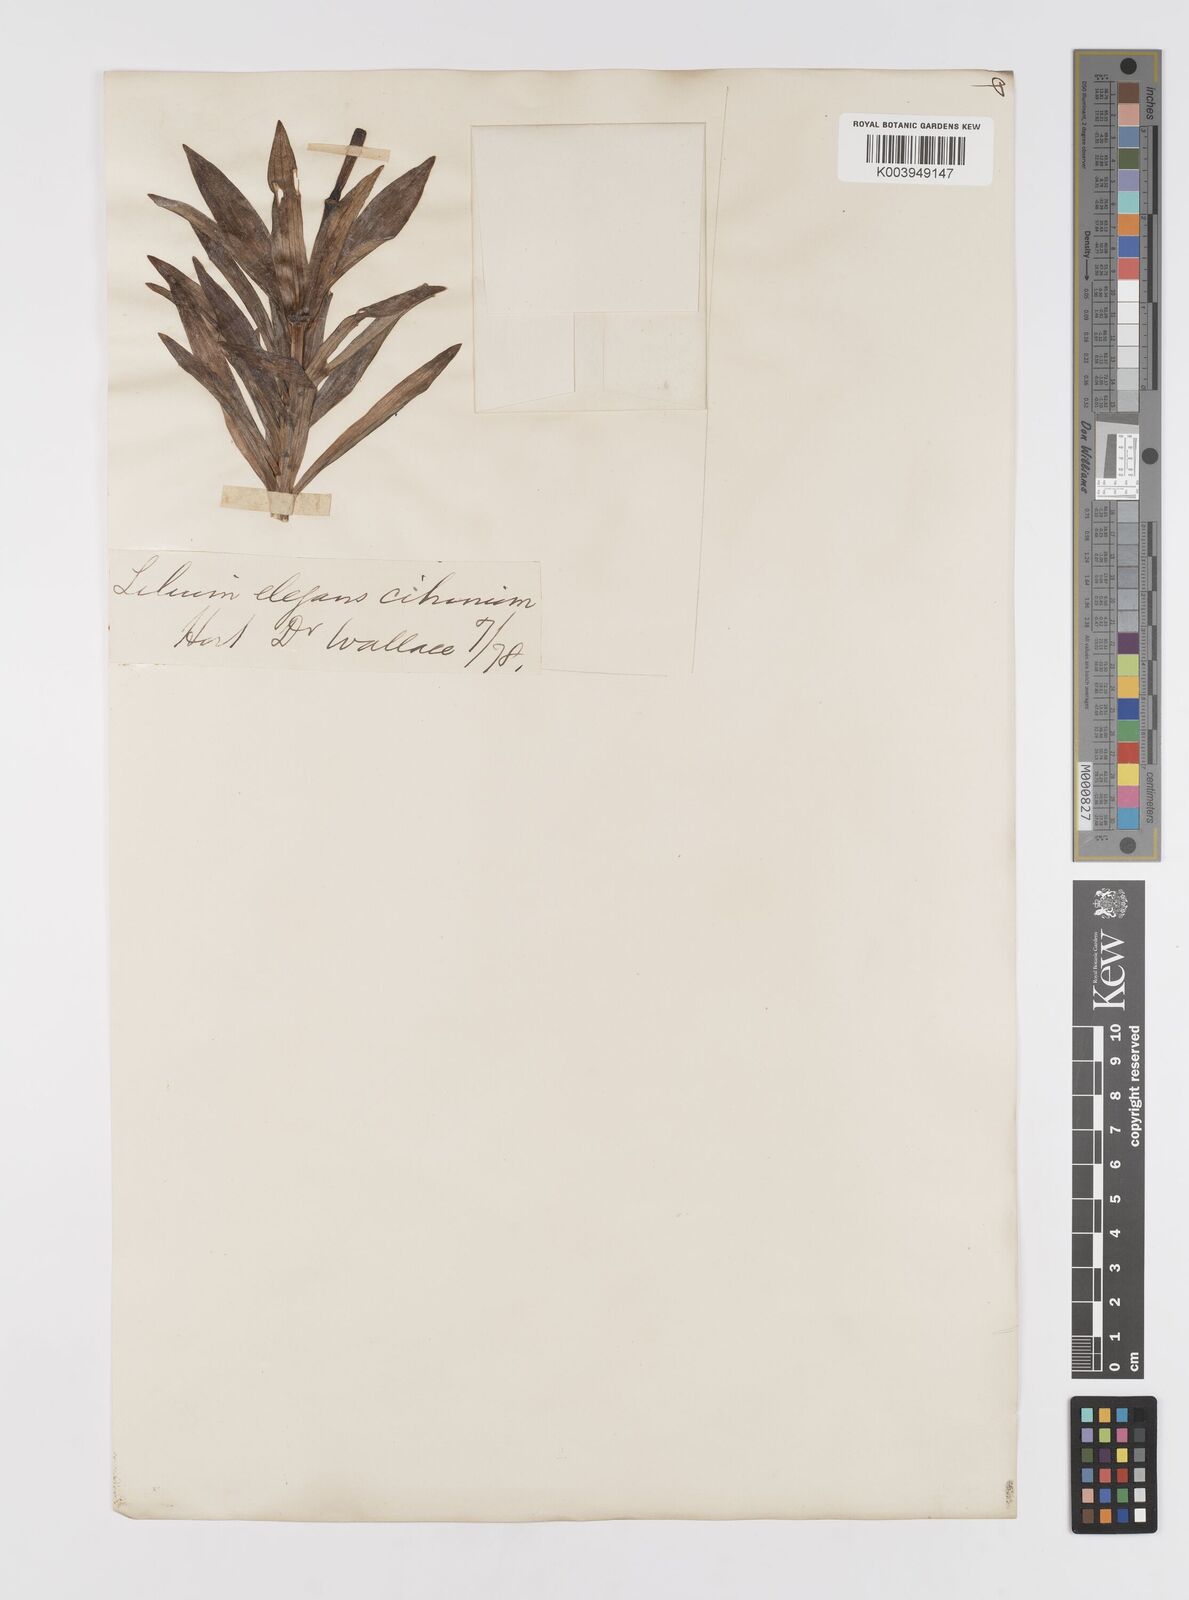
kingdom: Plantae
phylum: Tracheophyta
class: Liliopsida
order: Liliales
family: Liliaceae
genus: Lilium
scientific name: Lilium pensylvanicum
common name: Candlestick lily
